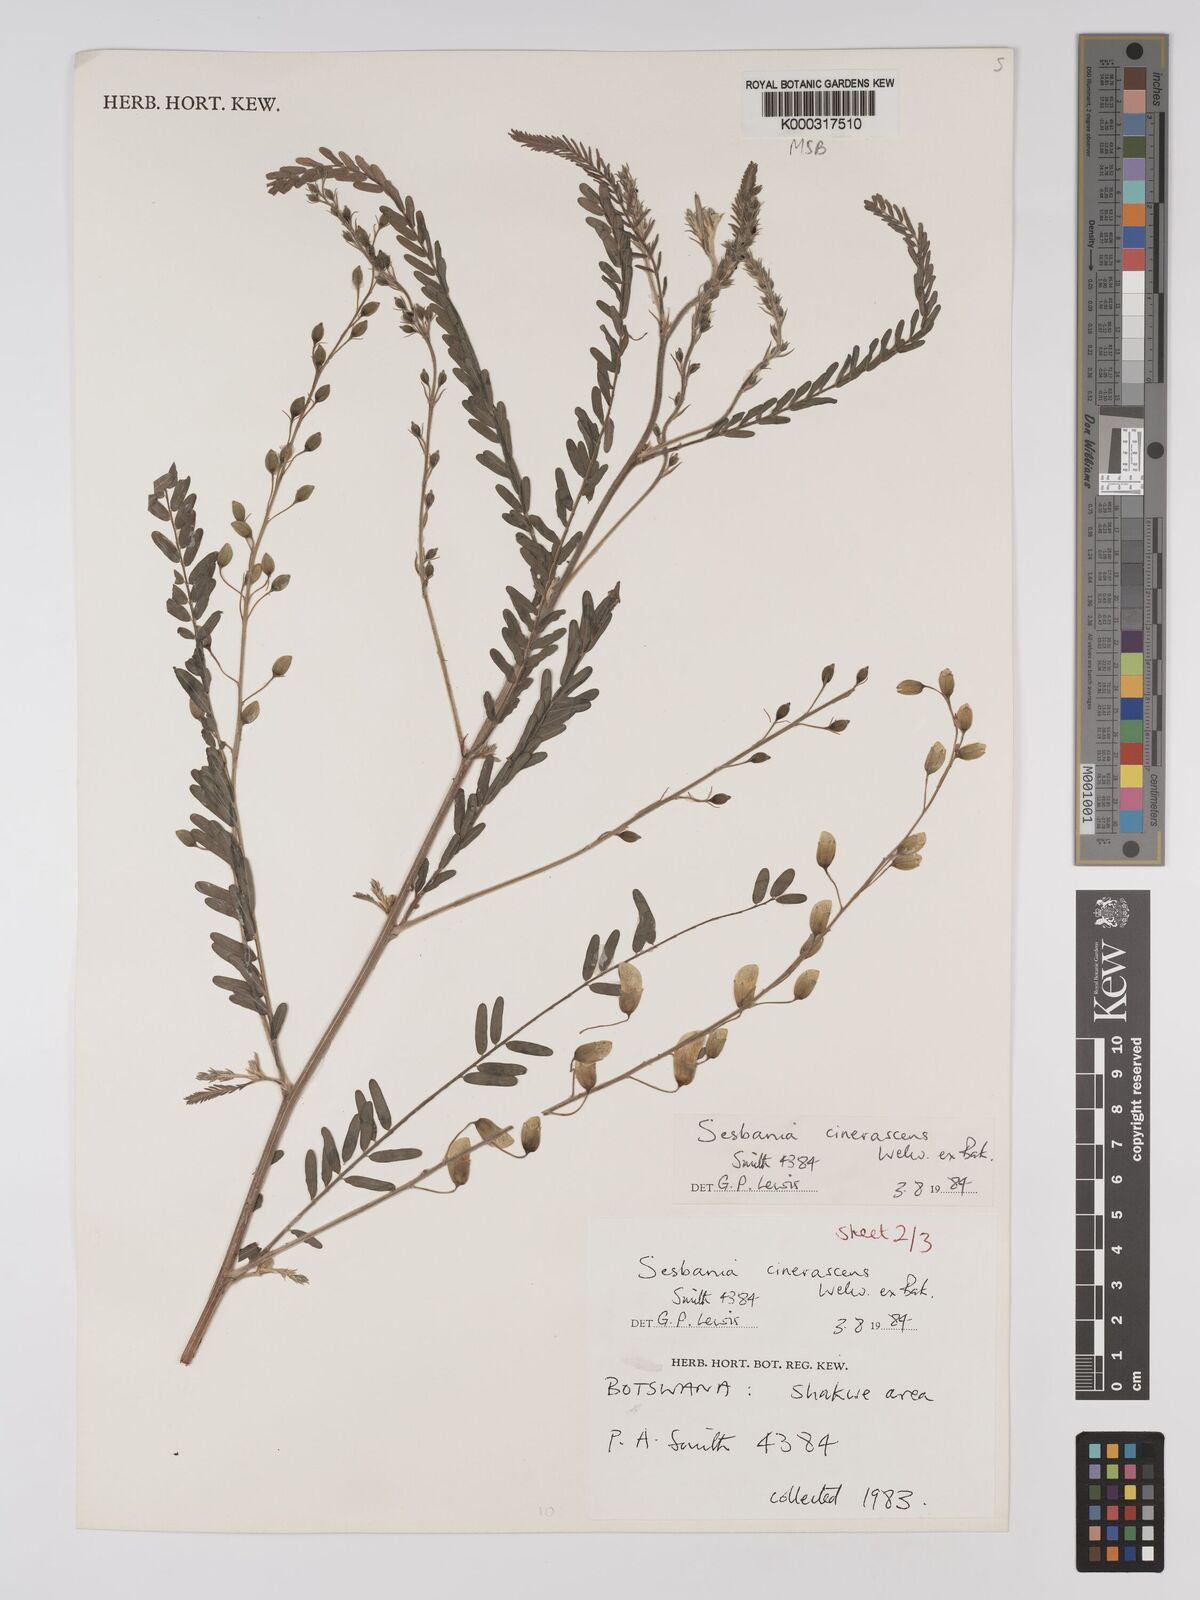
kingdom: Plantae
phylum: Tracheophyta
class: Magnoliopsida
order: Fabales
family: Fabaceae
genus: Sesbania
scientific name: Sesbania cinerascens
